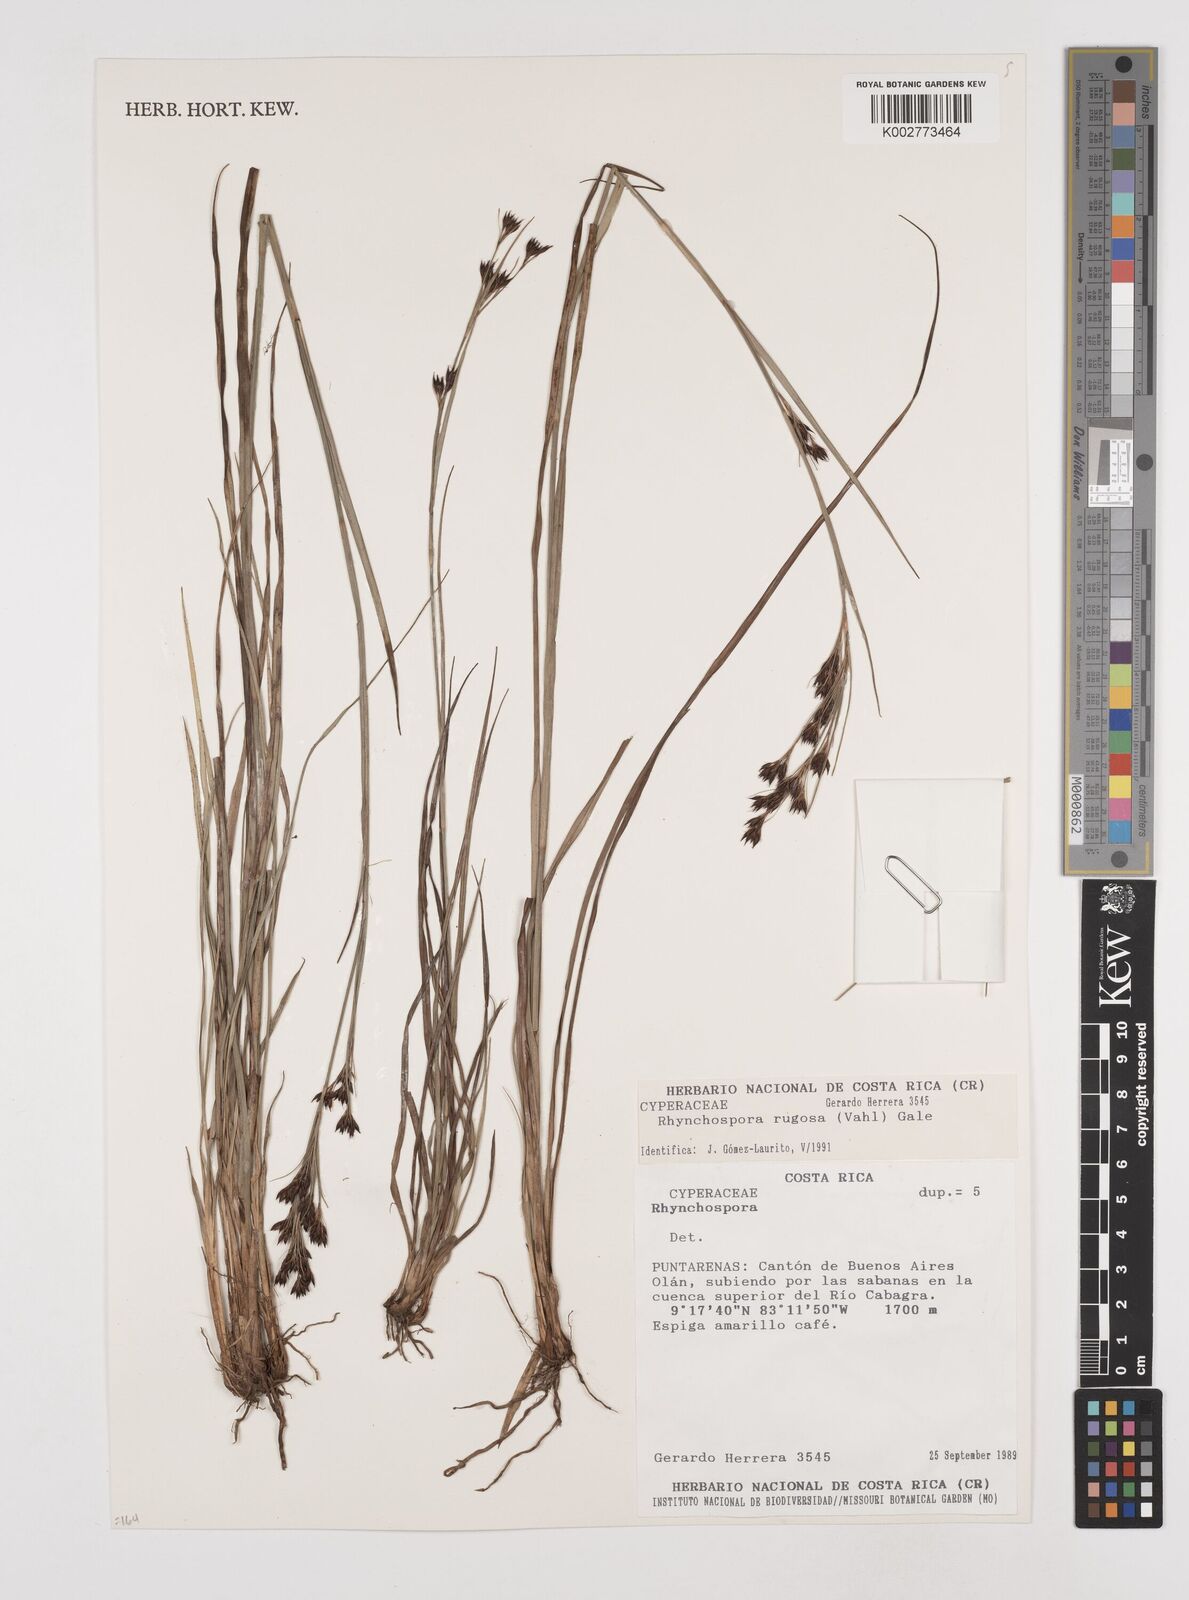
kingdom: Plantae
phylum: Tracheophyta
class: Liliopsida
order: Poales
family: Cyperaceae
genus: Rhynchospora
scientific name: Rhynchospora rugosa
